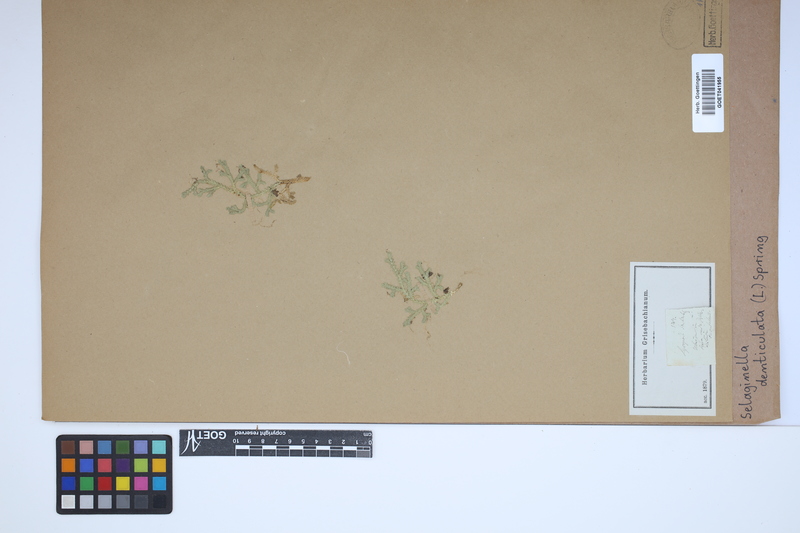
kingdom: Plantae
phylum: Tracheophyta
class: Lycopodiopsida
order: Selaginellales
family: Selaginellaceae
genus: Selaginella
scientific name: Selaginella denticulata
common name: Toothed-leaved clubmoss
